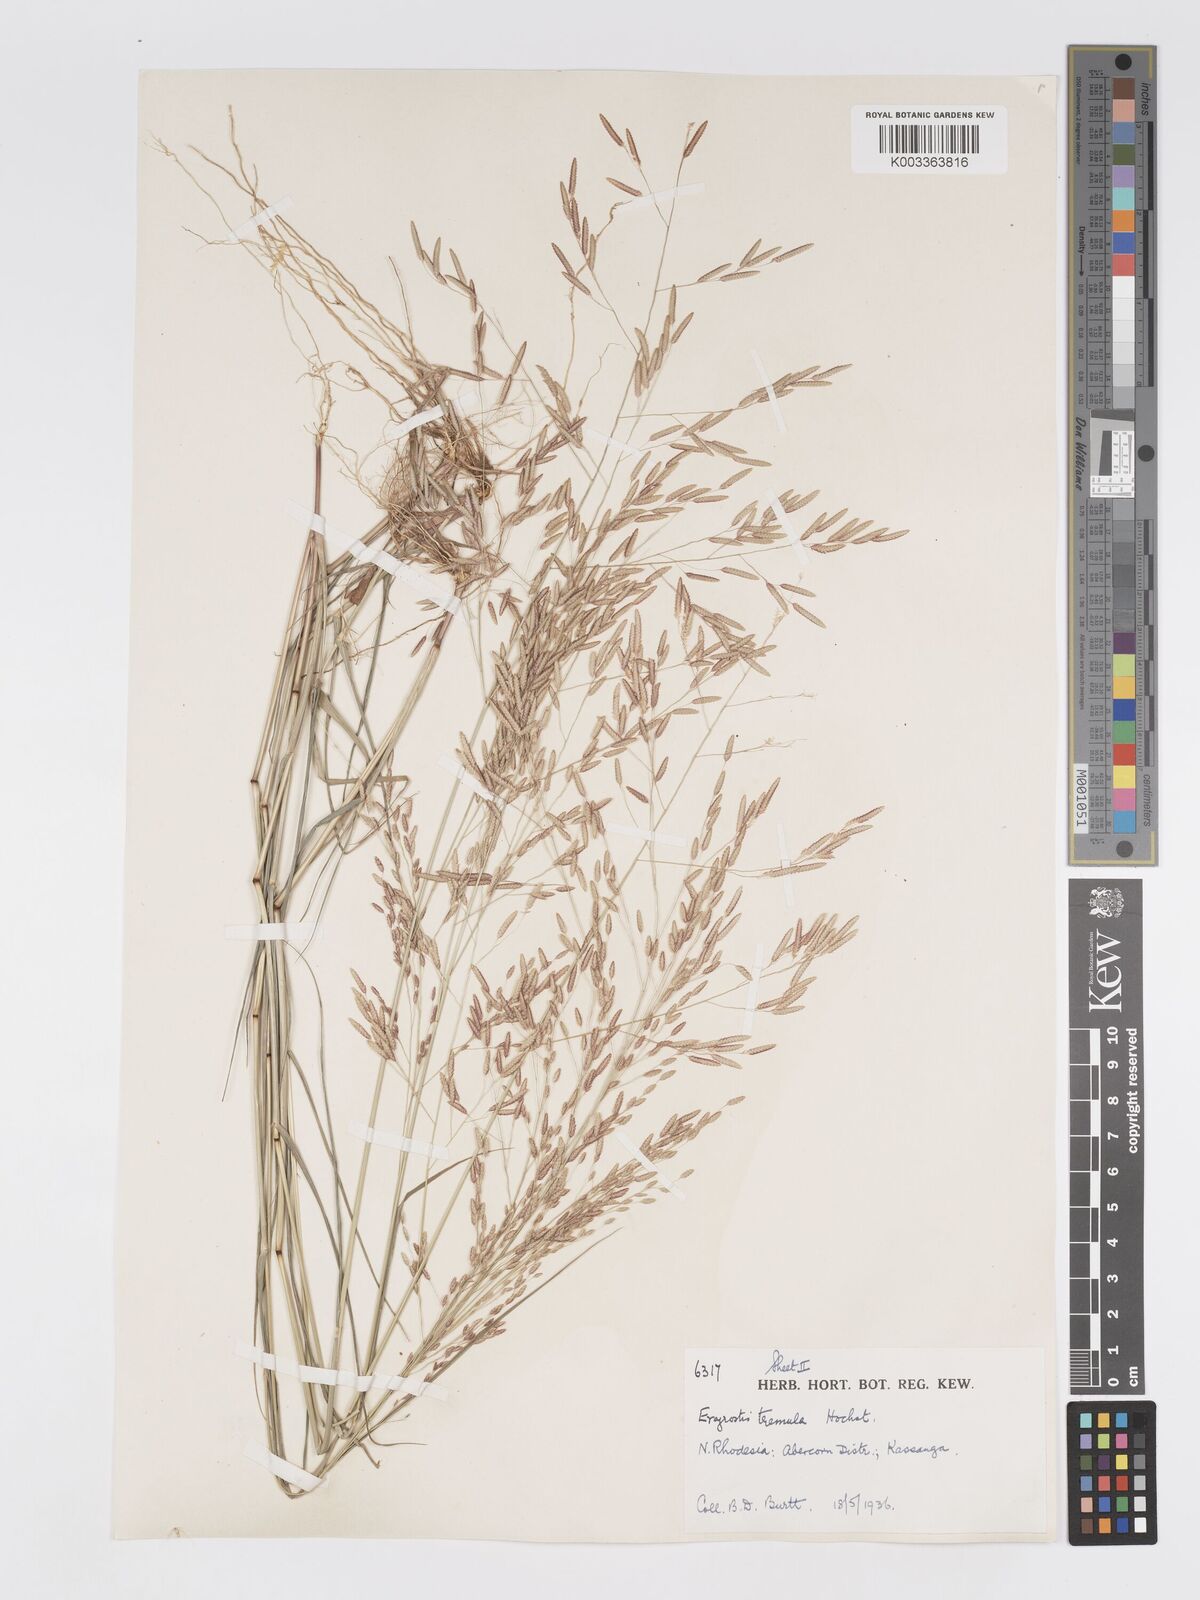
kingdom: Plantae
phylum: Tracheophyta
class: Liliopsida
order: Poales
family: Poaceae
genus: Eragrostis
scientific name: Eragrostis tremula
